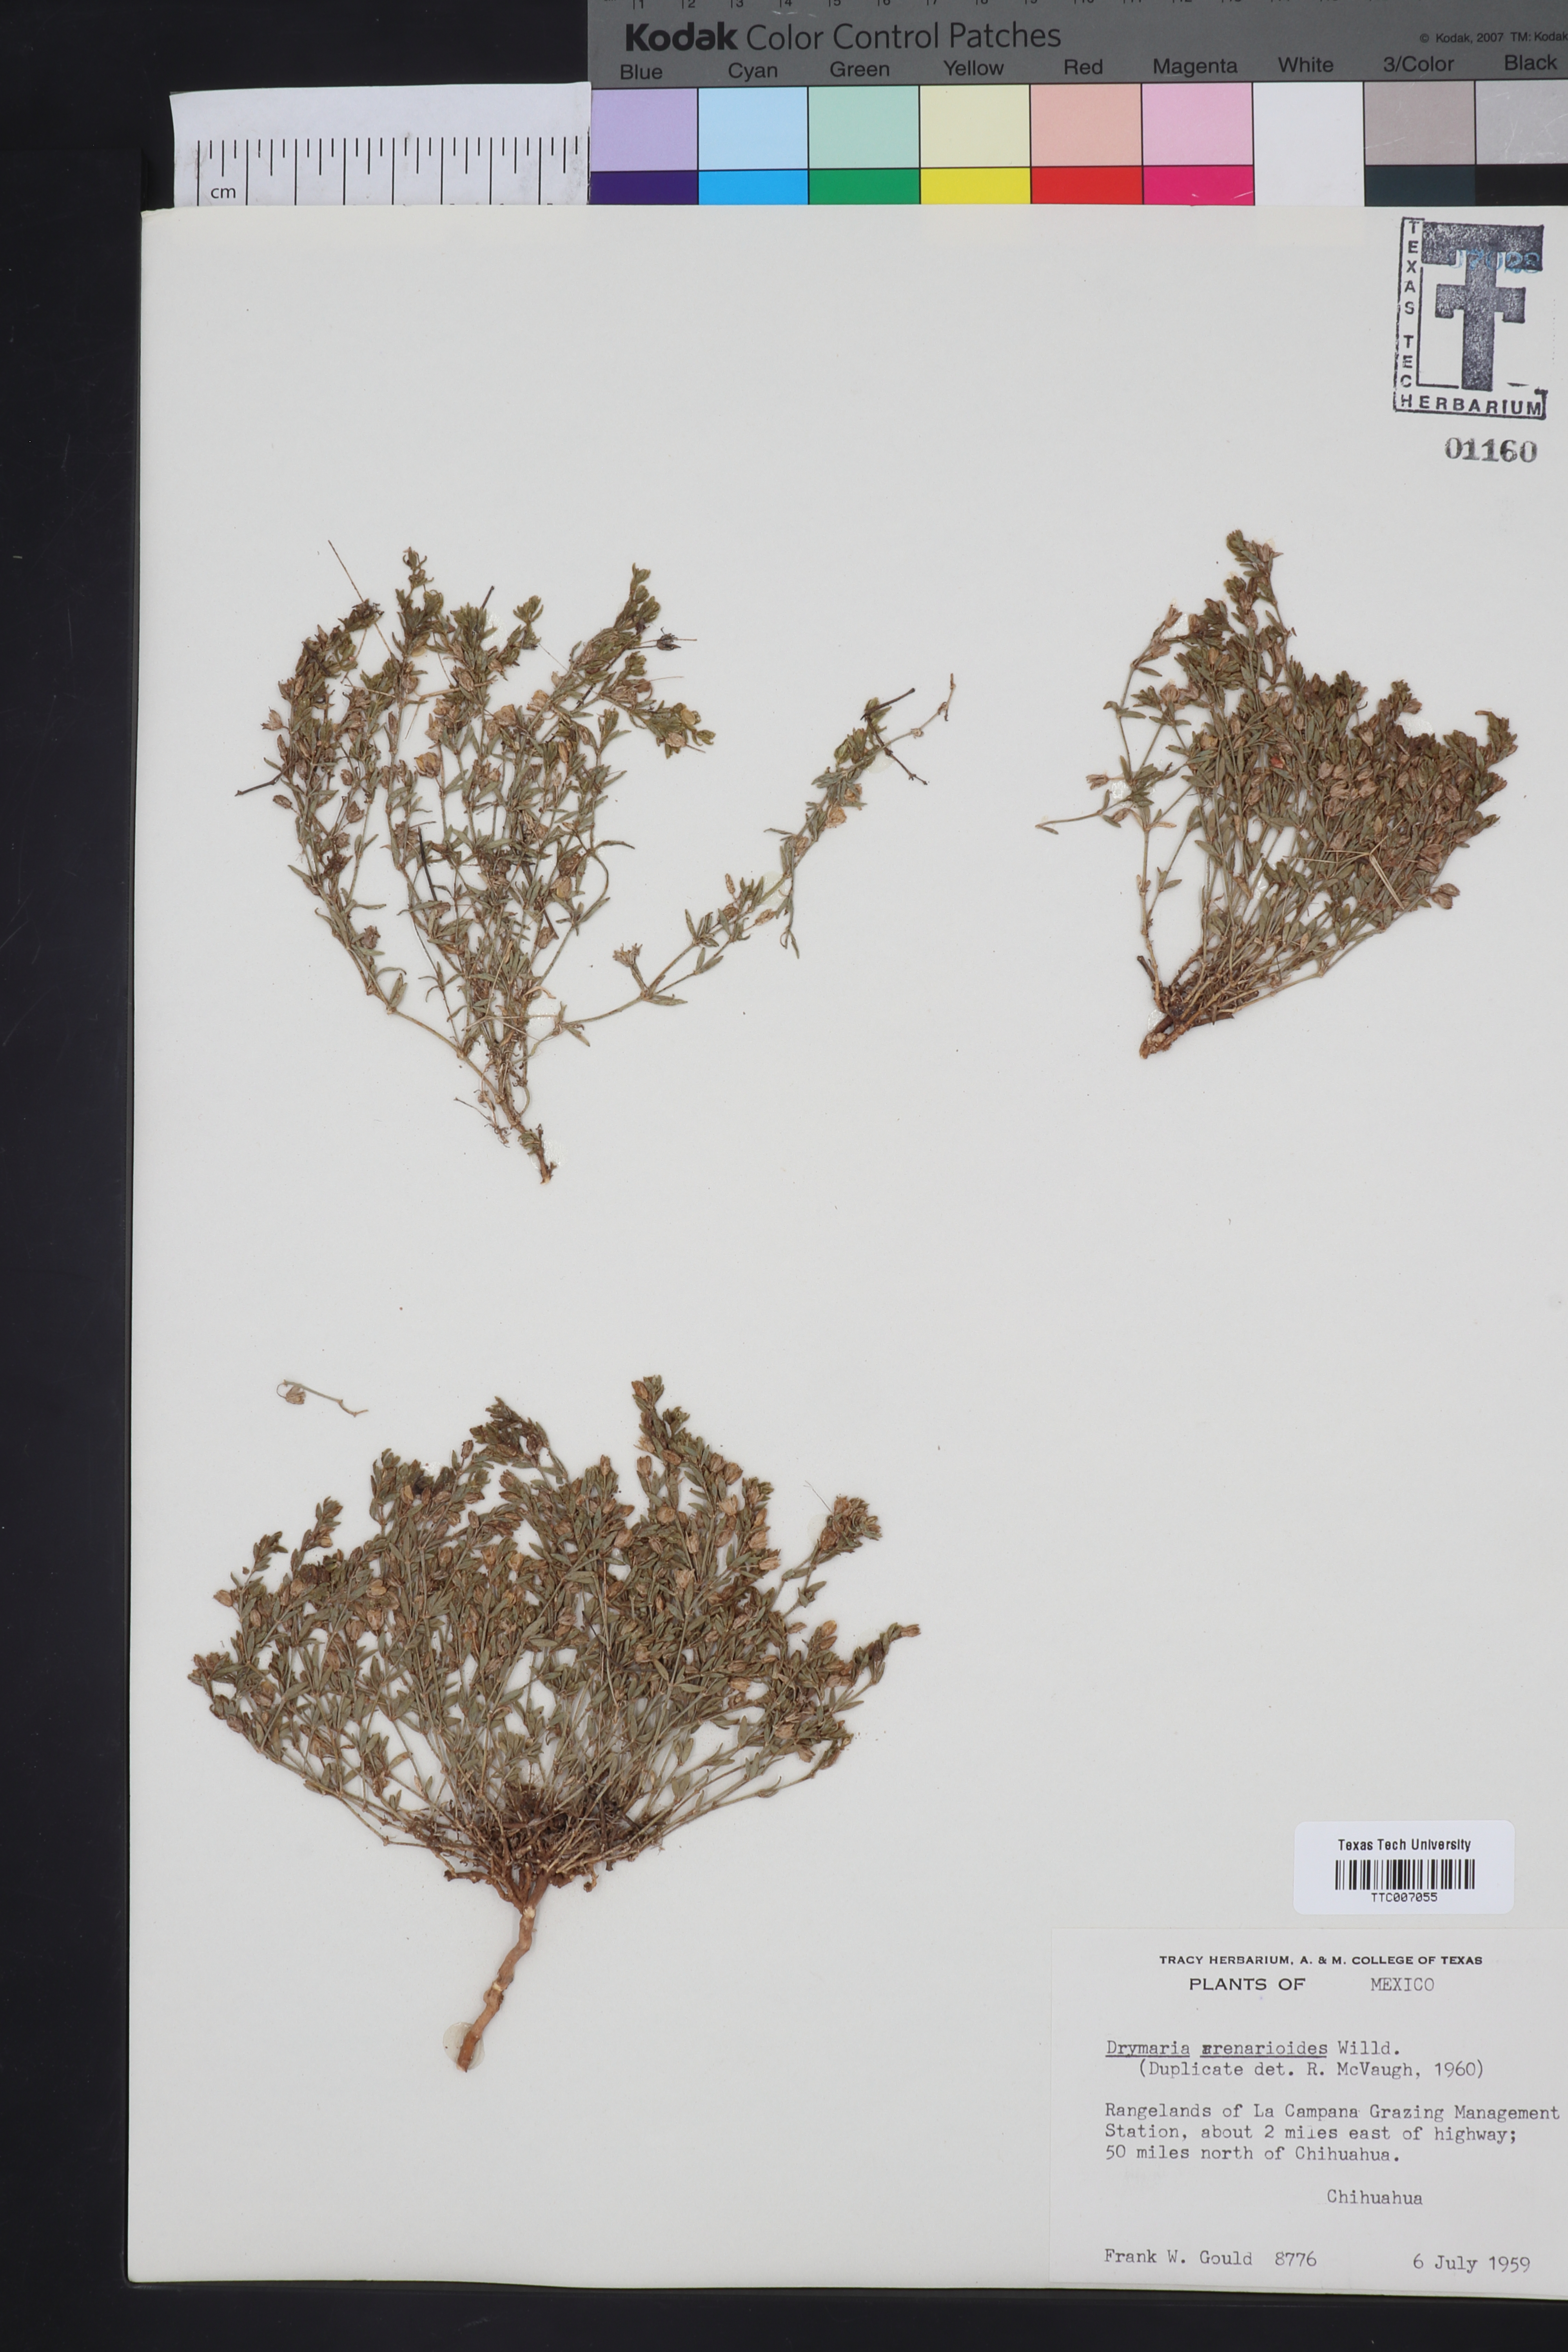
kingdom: Plantae
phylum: Tracheophyta
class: Magnoliopsida
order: Caryophyllales
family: Caryophyllaceae
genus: Drymaria
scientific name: Drymaria arenarioides
